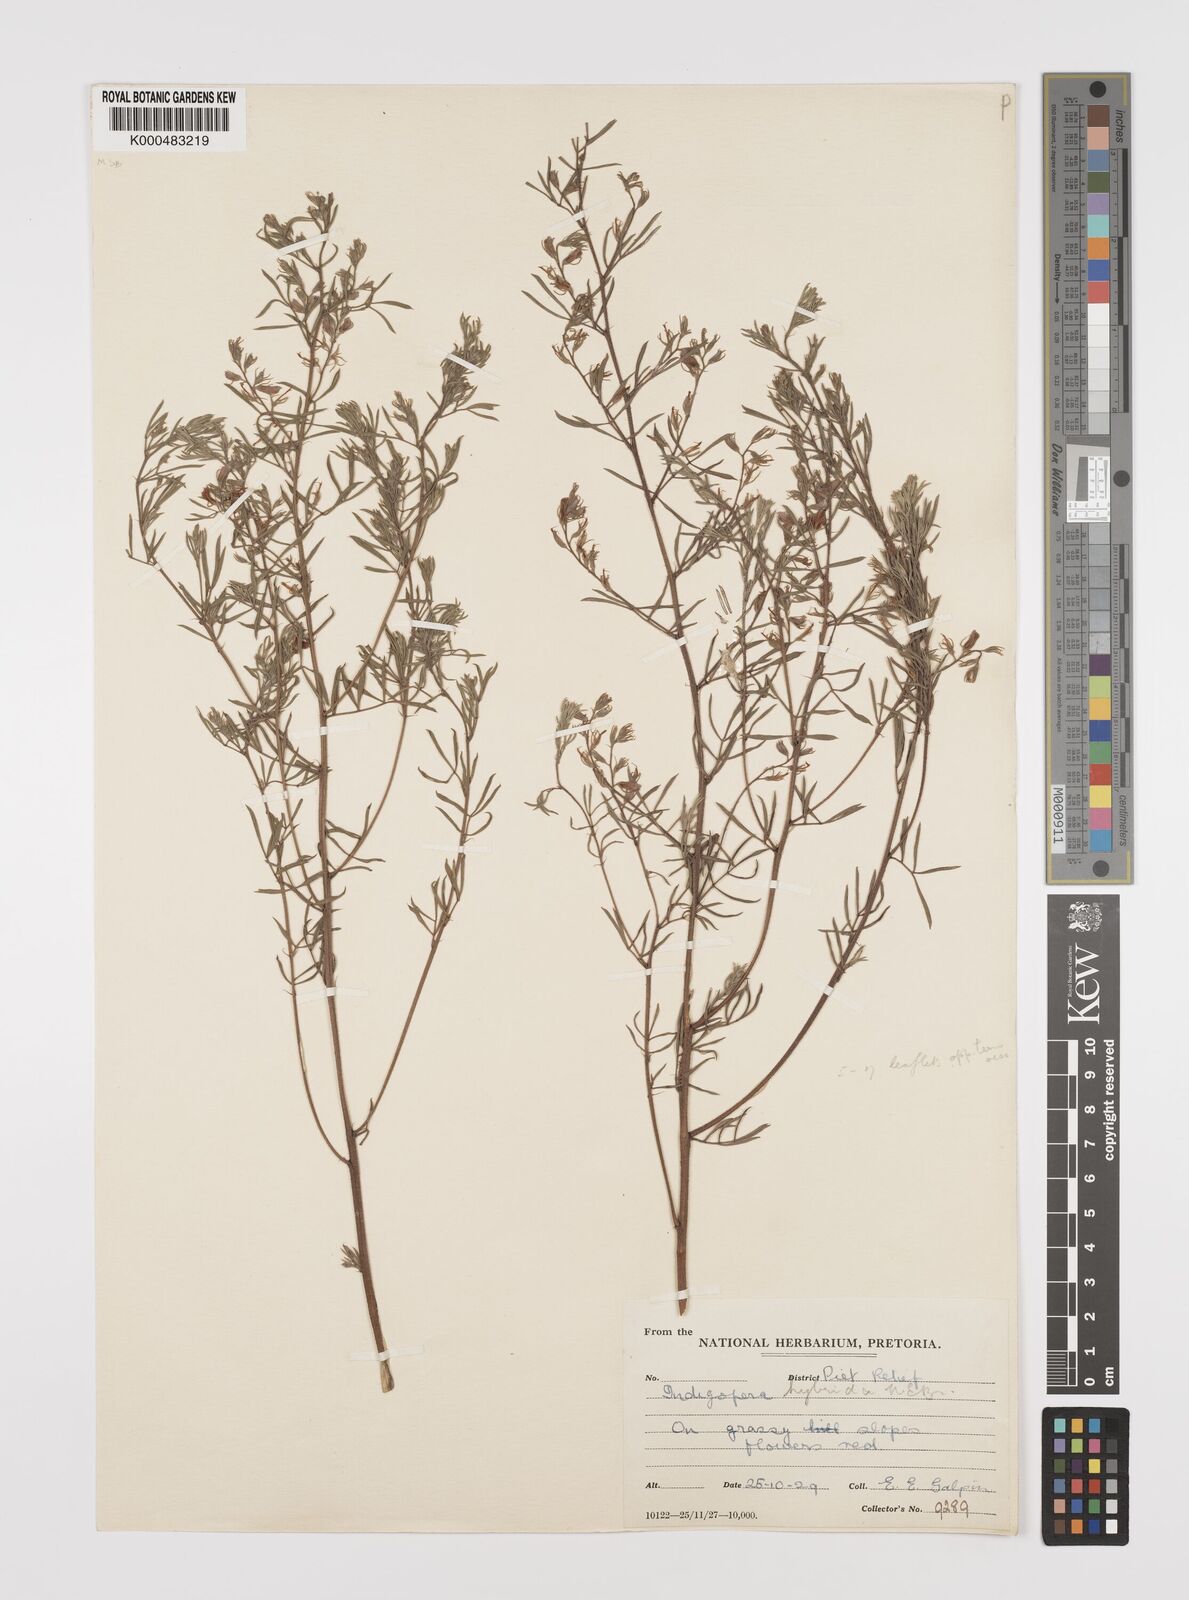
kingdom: Plantae
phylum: Tracheophyta
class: Magnoliopsida
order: Fabales
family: Fabaceae
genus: Indigofera
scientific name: Indigofera hybrida
